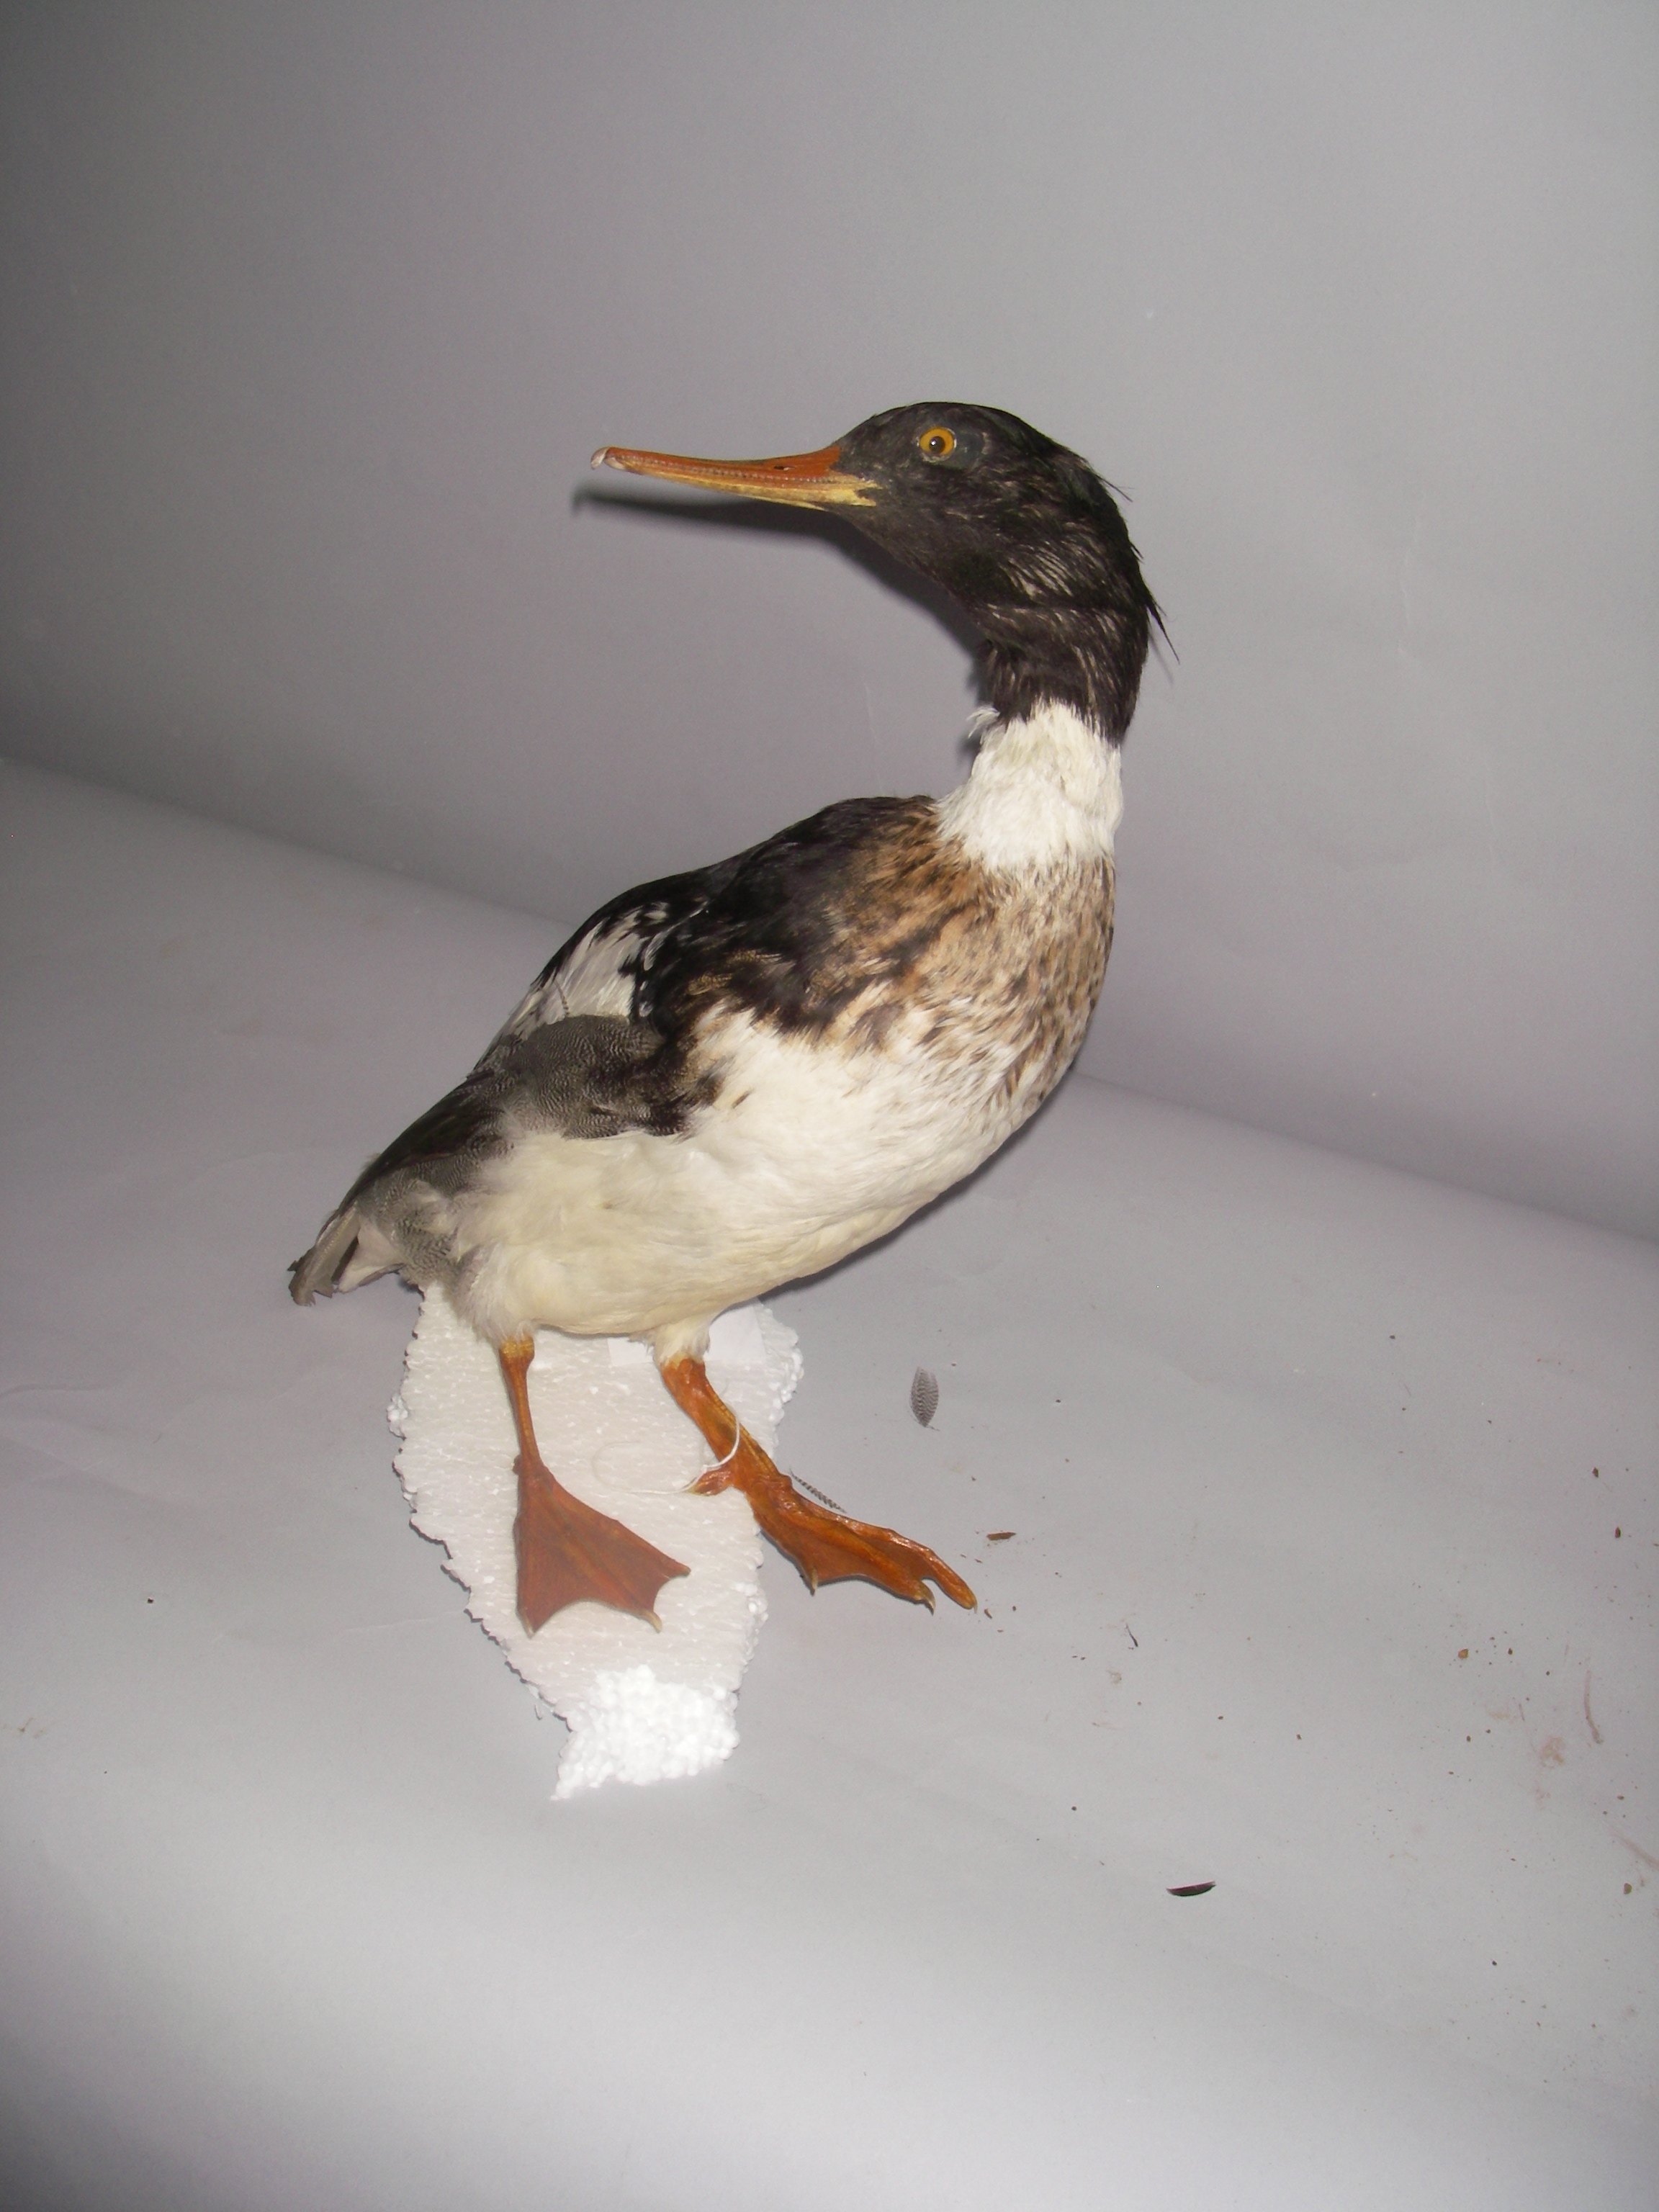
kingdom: Animalia
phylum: Chordata
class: Aves
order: Anseriformes
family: Anatidae
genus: Mergus
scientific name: Mergus serrator
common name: Red-breasted merganser
